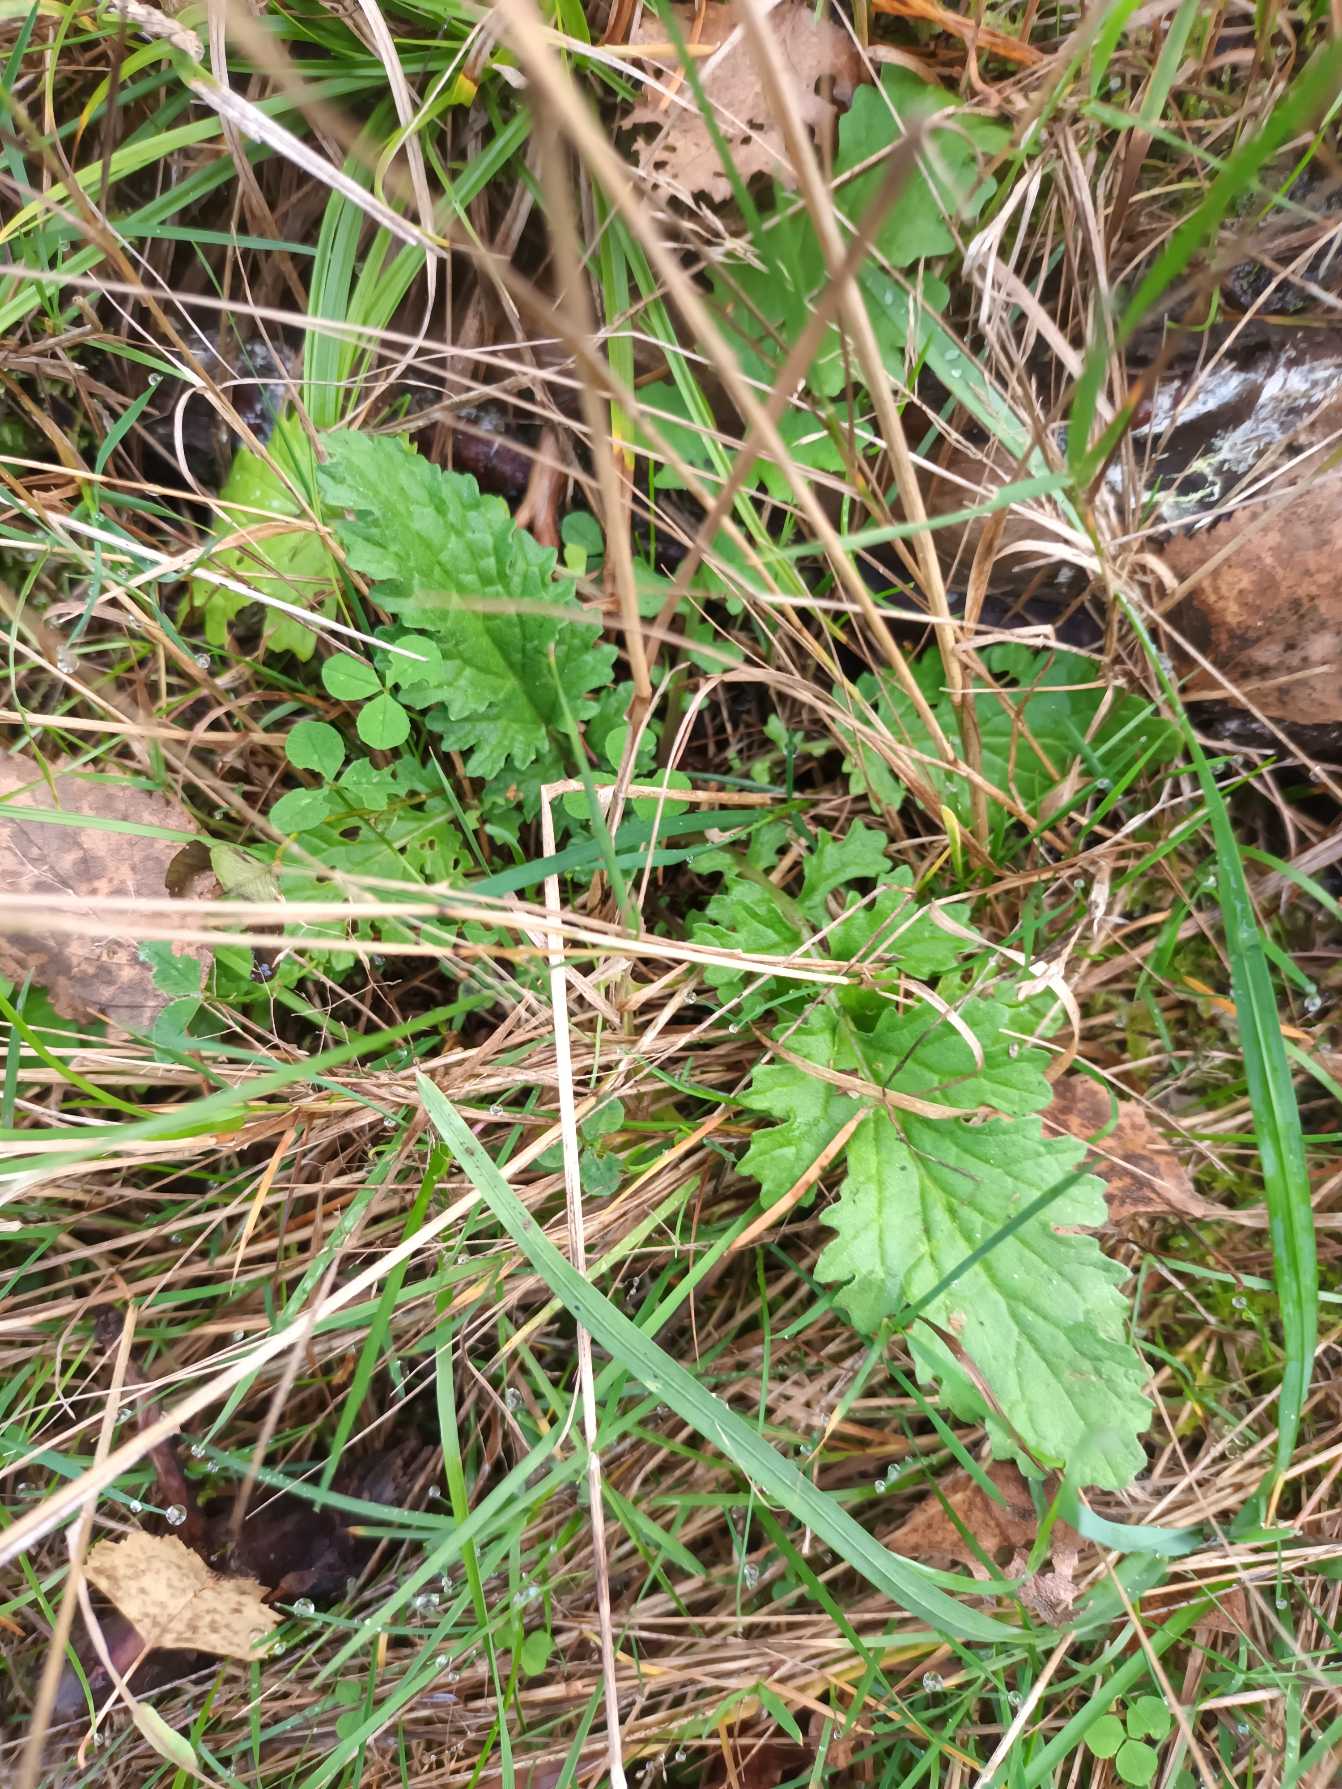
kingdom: Plantae
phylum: Tracheophyta
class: Magnoliopsida
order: Asterales
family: Asteraceae
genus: Jacobaea
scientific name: Jacobaea vulgaris
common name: Eng-brandbæger
